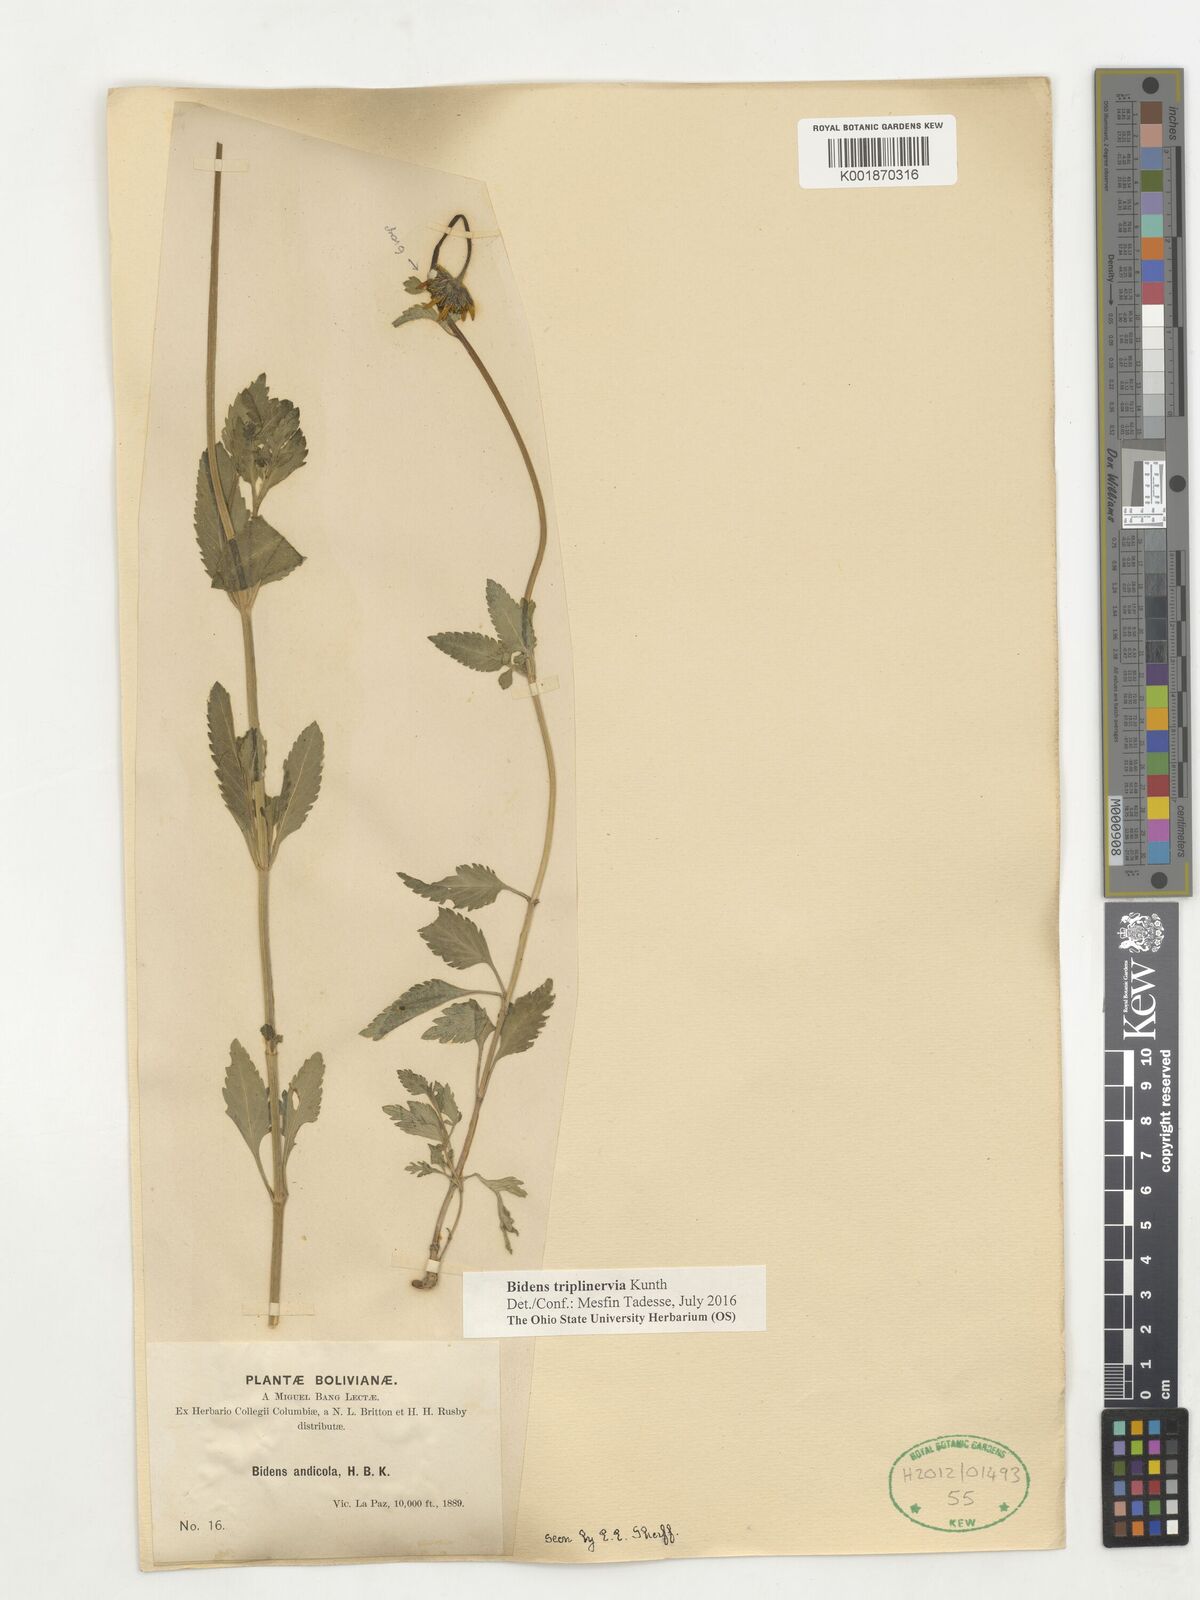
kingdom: Plantae
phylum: Tracheophyta
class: Magnoliopsida
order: Asterales
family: Asteraceae
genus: Bidens
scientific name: Bidens triplinervia
